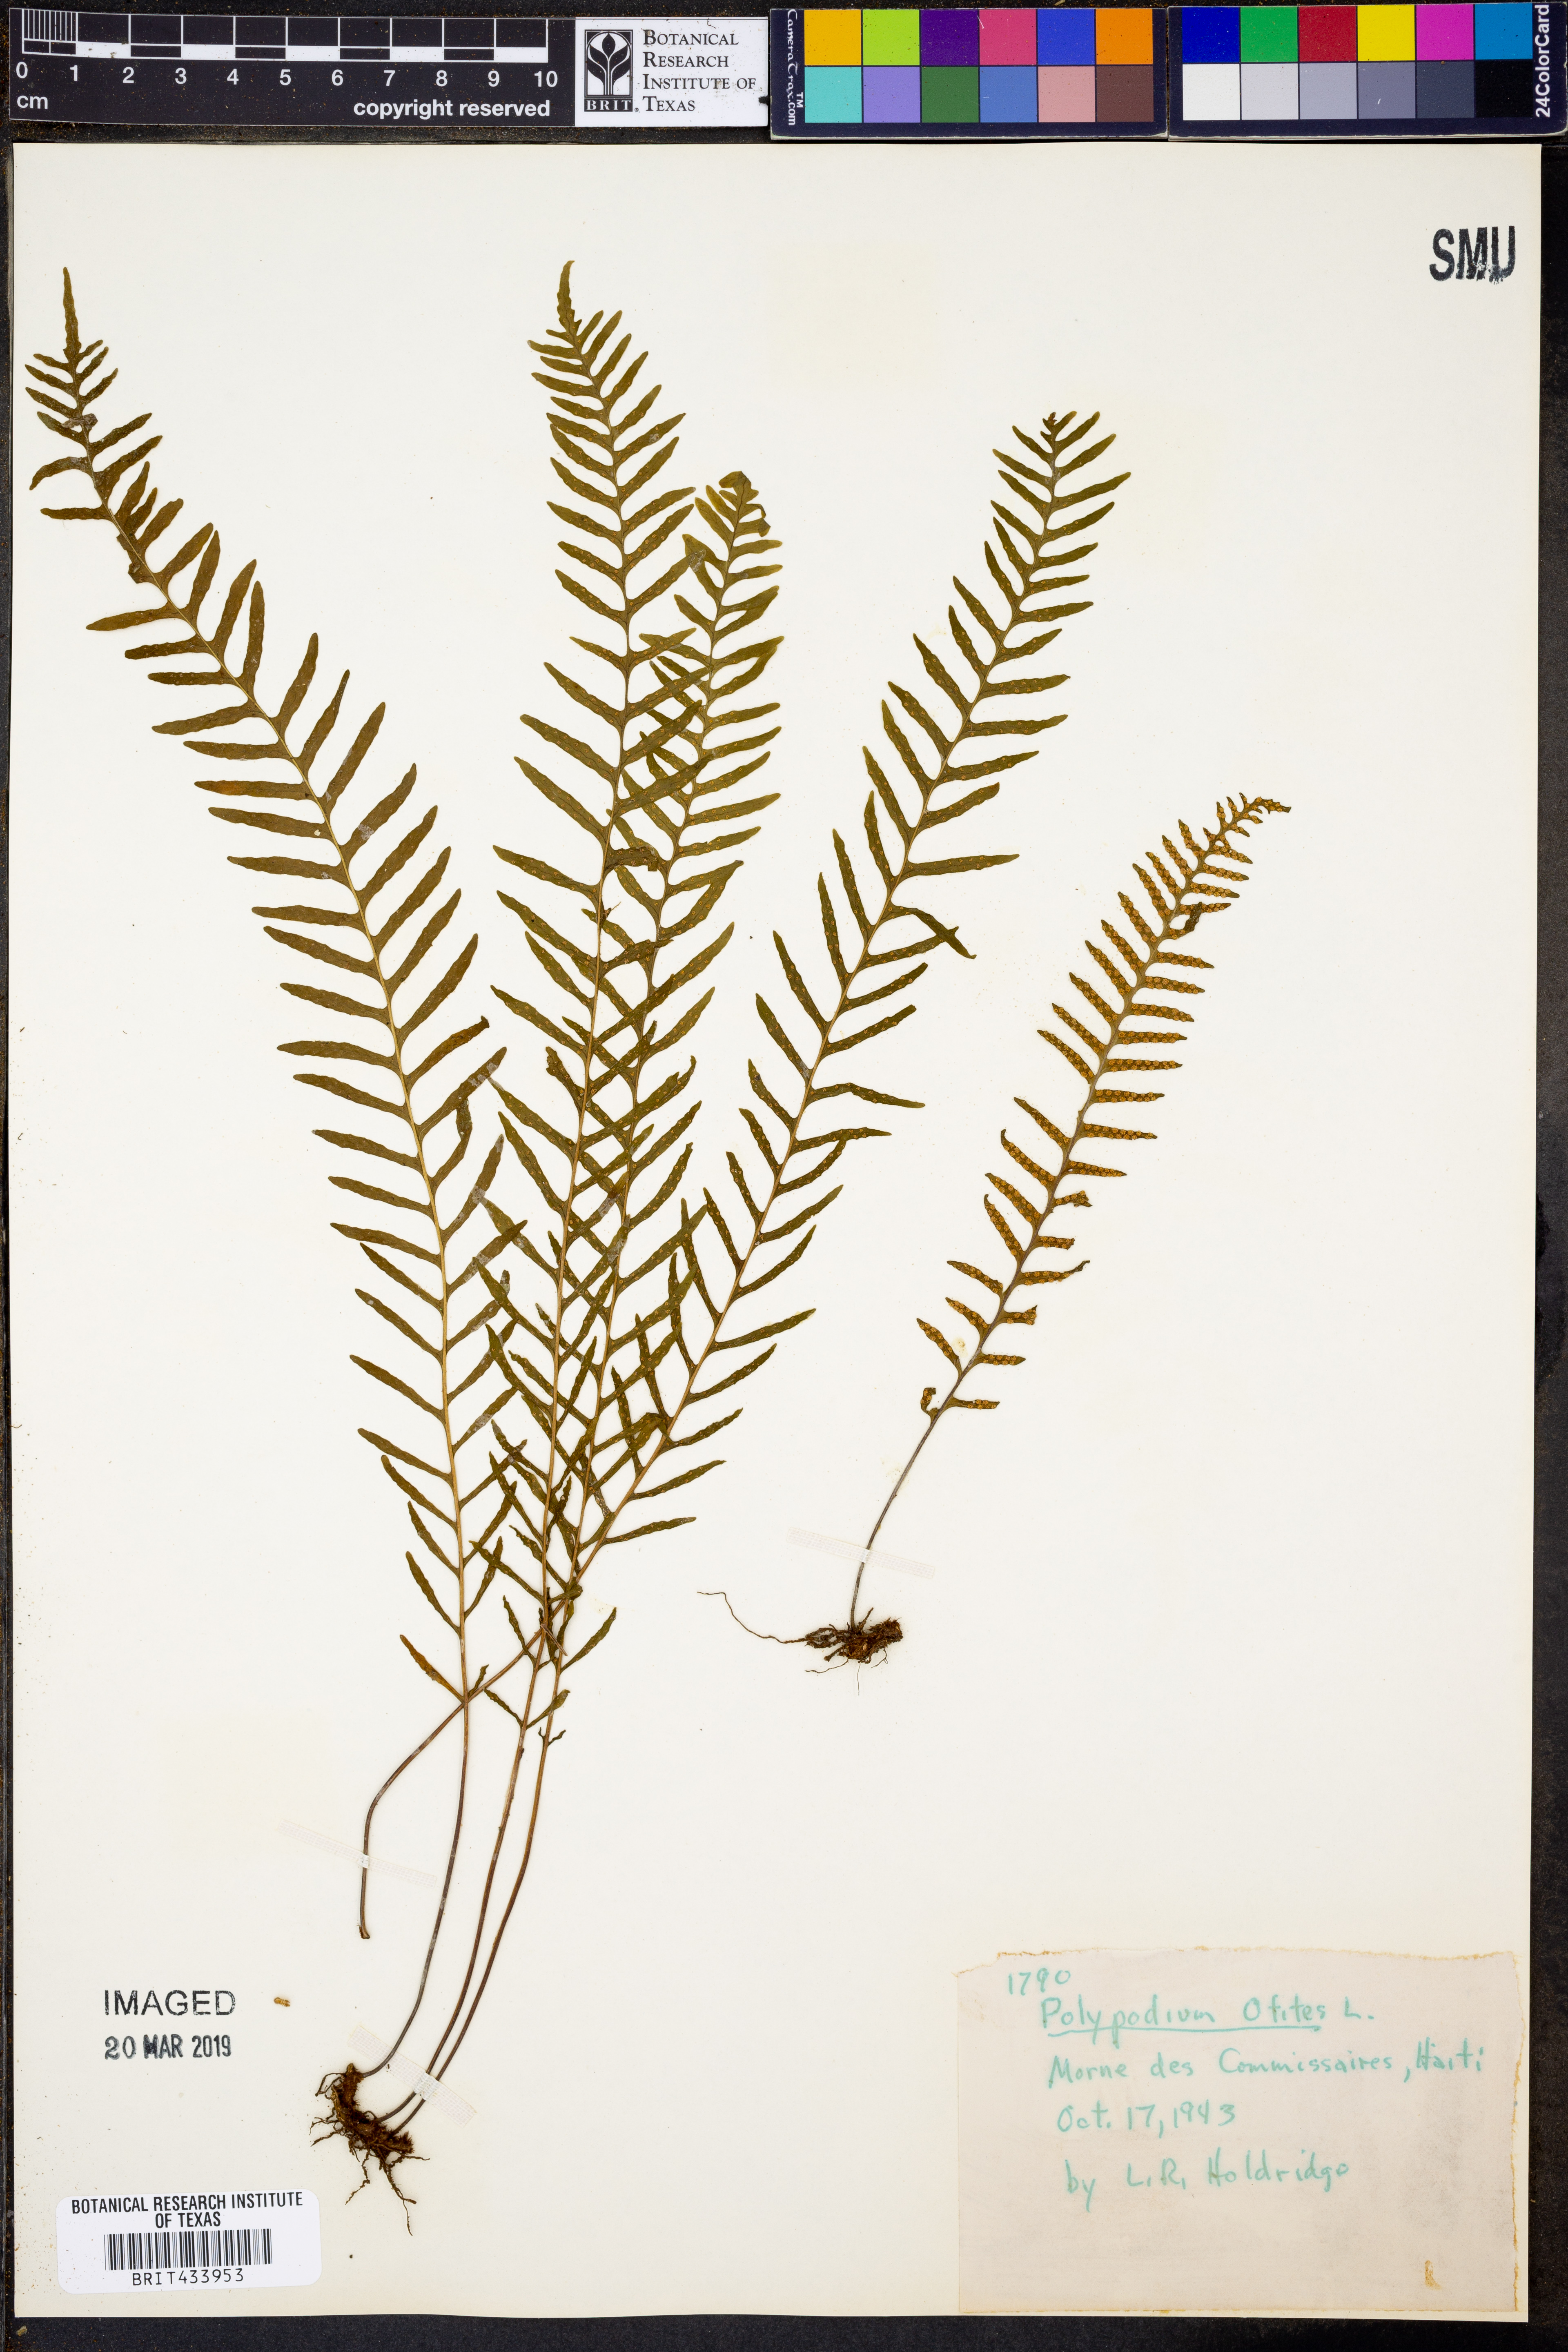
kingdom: Plantae
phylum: Tracheophyta
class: Polypodiopsida
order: Polypodiales
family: Polypodiaceae
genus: Polypodium
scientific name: Polypodium otites
